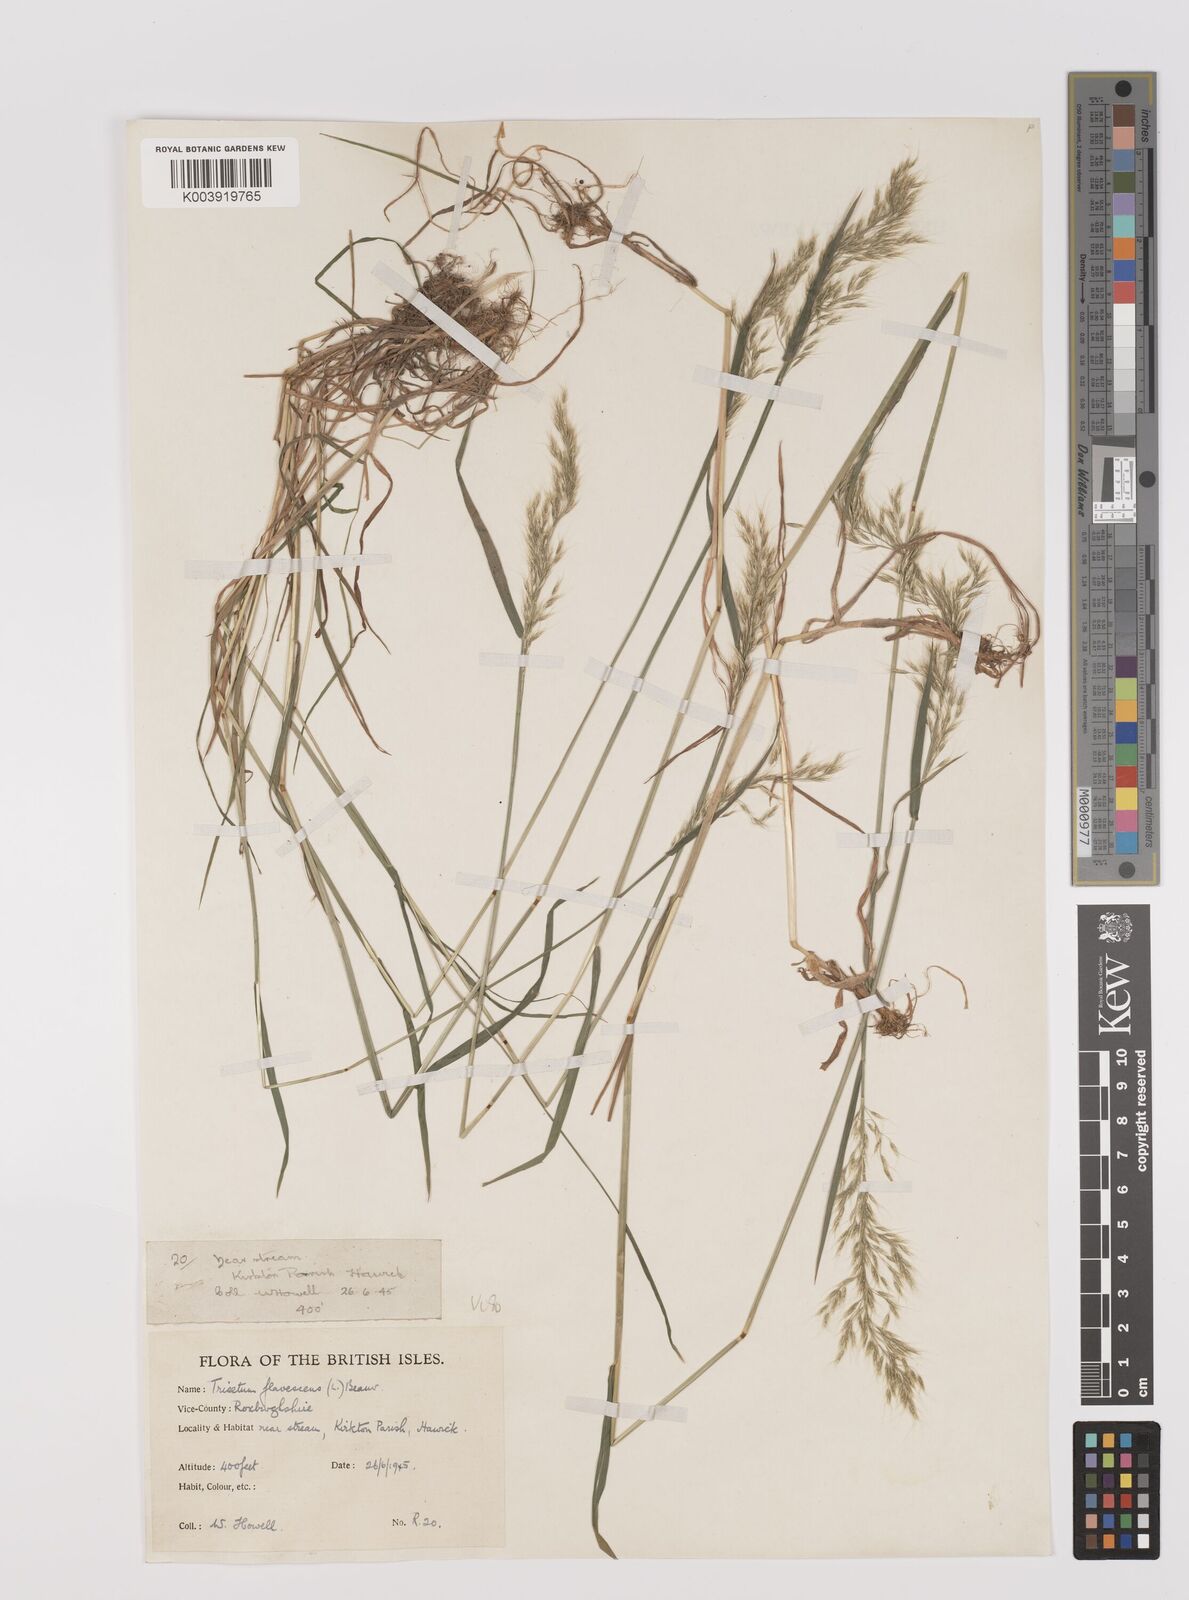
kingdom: Plantae
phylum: Tracheophyta
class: Liliopsida
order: Poales
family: Poaceae
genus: Trisetum
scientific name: Trisetum flavescens
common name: Yellow oat-grass
